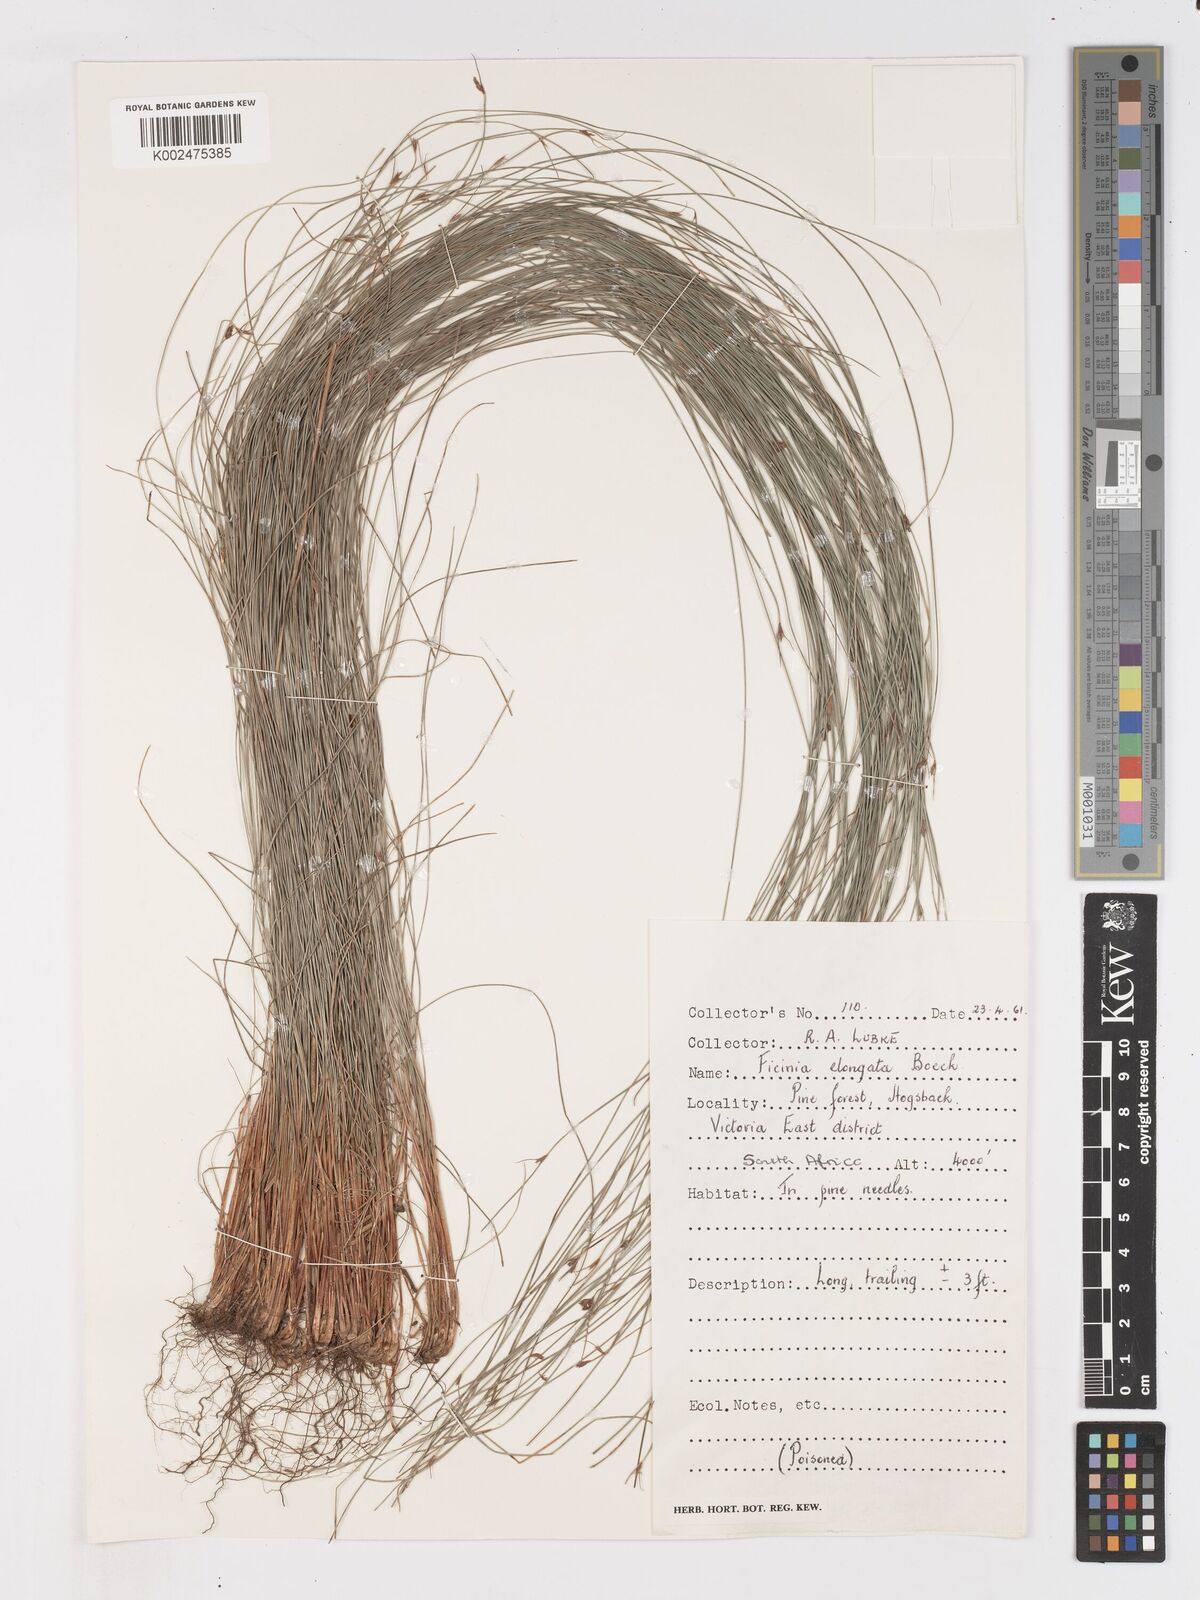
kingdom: Plantae
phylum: Tracheophyta
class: Liliopsida
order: Poales
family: Cyperaceae
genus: Ficinia
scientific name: Ficinia acuminata
